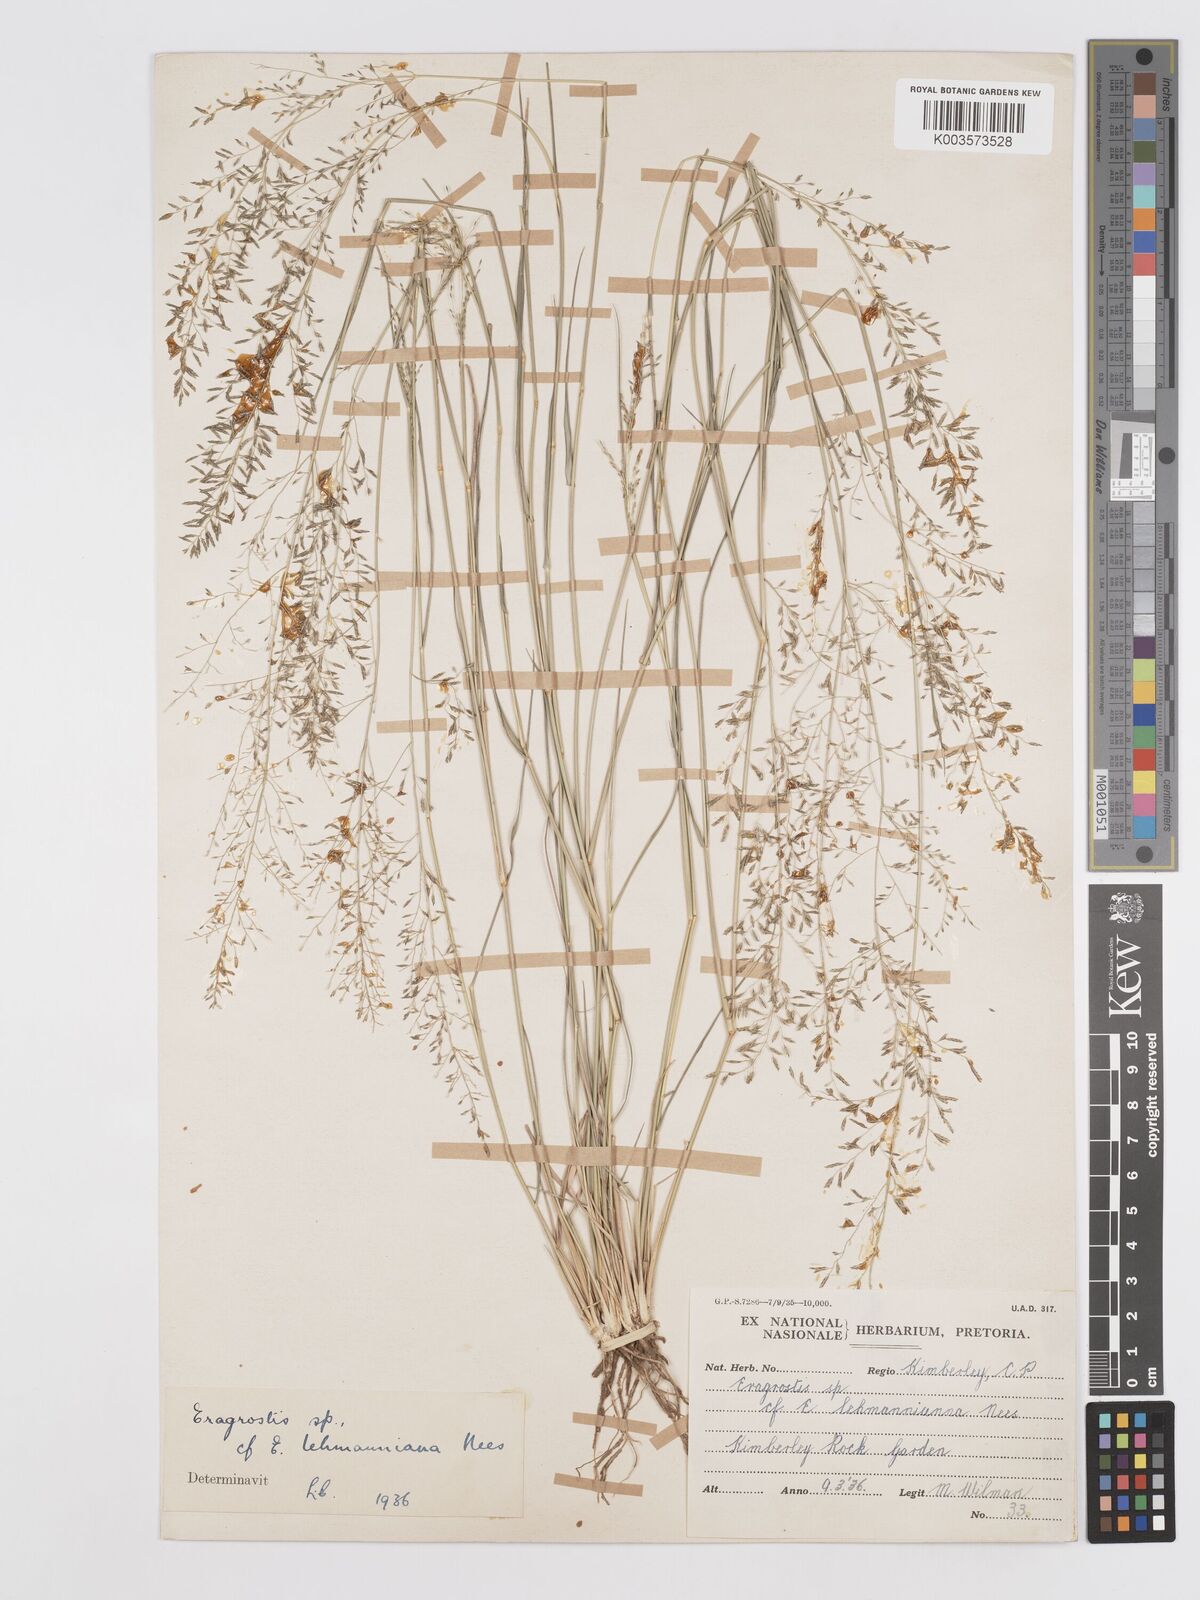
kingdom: Plantae
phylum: Tracheophyta
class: Liliopsida
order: Poales
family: Poaceae
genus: Eragrostis
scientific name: Eragrostis lehmanniana
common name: Lehmann lovegrass
